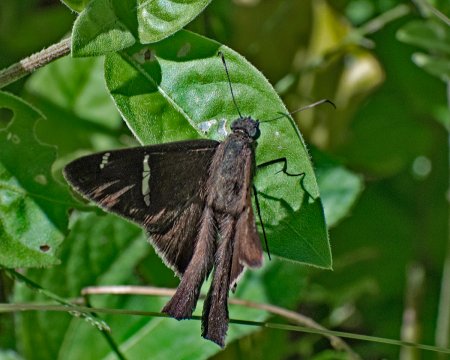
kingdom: Animalia
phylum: Arthropoda
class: Insecta
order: Lepidoptera
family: Hesperiidae
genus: Urbanus
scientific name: Urbanus teleus
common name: Teleus Longtail
